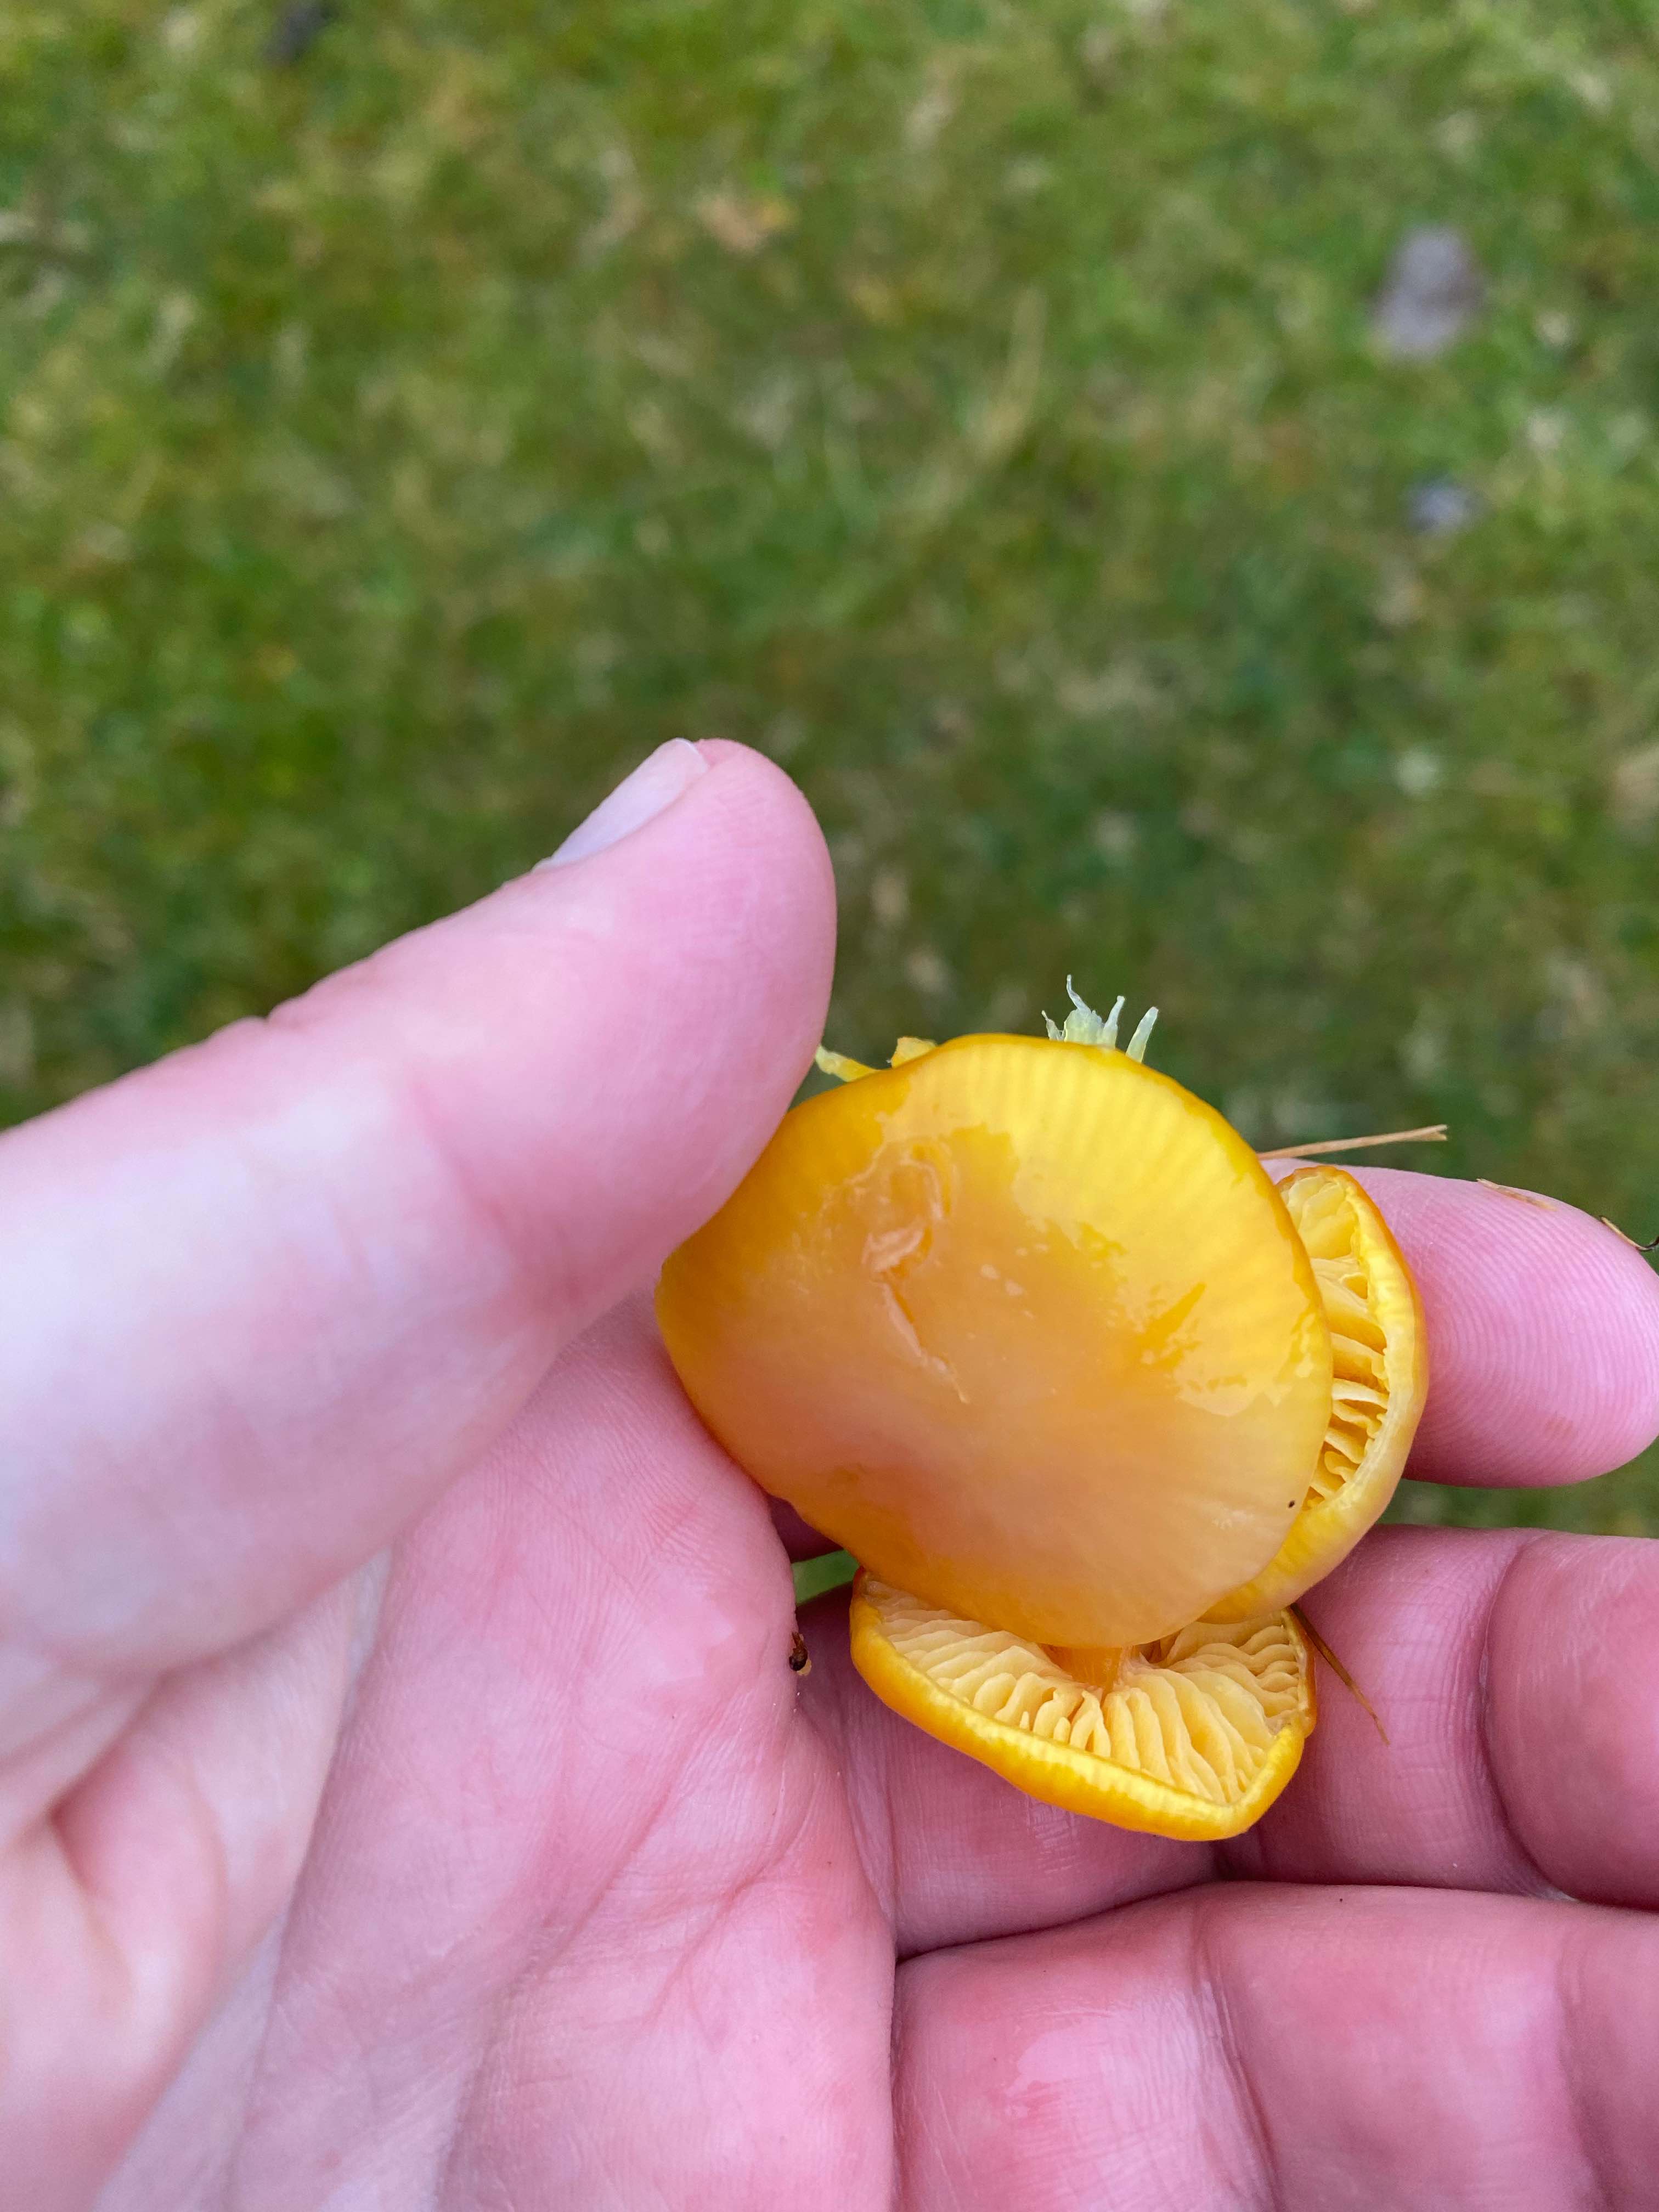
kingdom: Fungi
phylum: Basidiomycota
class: Agaricomycetes
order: Agaricales
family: Hygrophoraceae
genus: Hygrocybe
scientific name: Hygrocybe chlorophana
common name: gul vokshat
